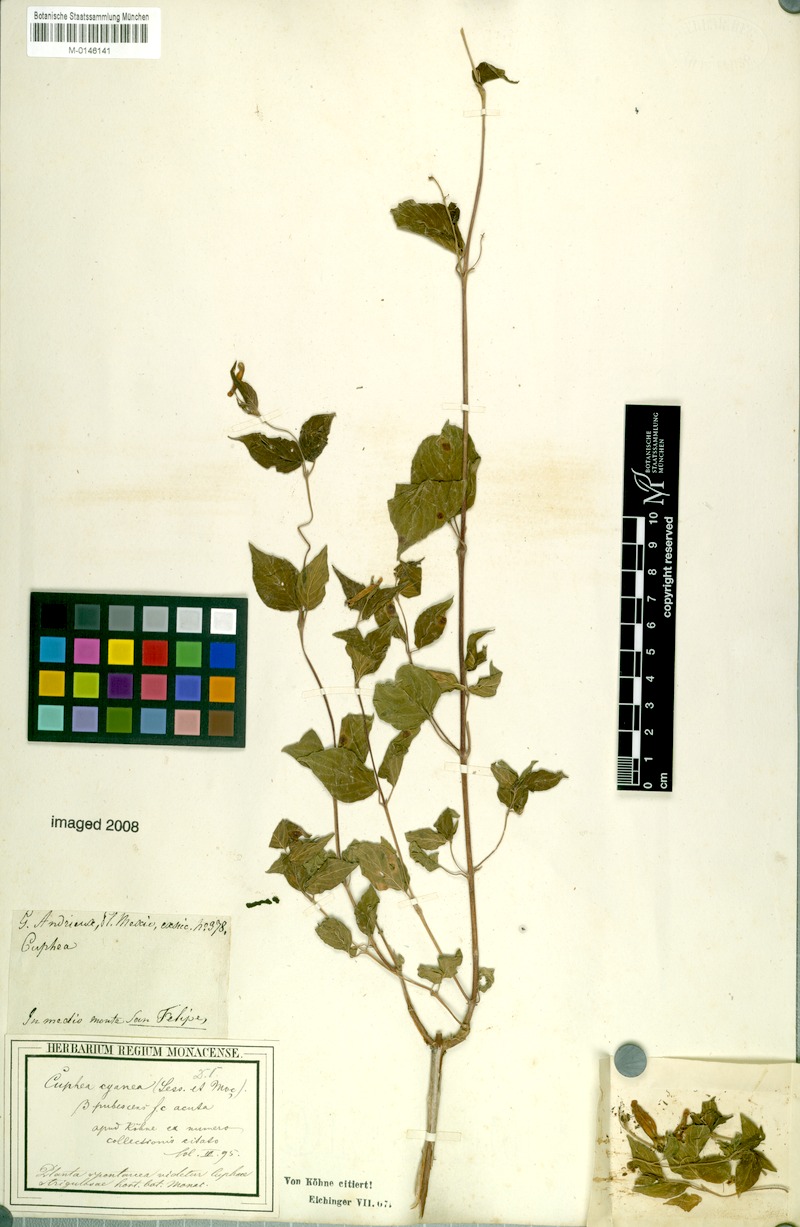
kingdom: Plantae
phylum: Tracheophyta
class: Magnoliopsida
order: Myrtales
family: Lythraceae
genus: Cuphea
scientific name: Cuphea cyanaea
